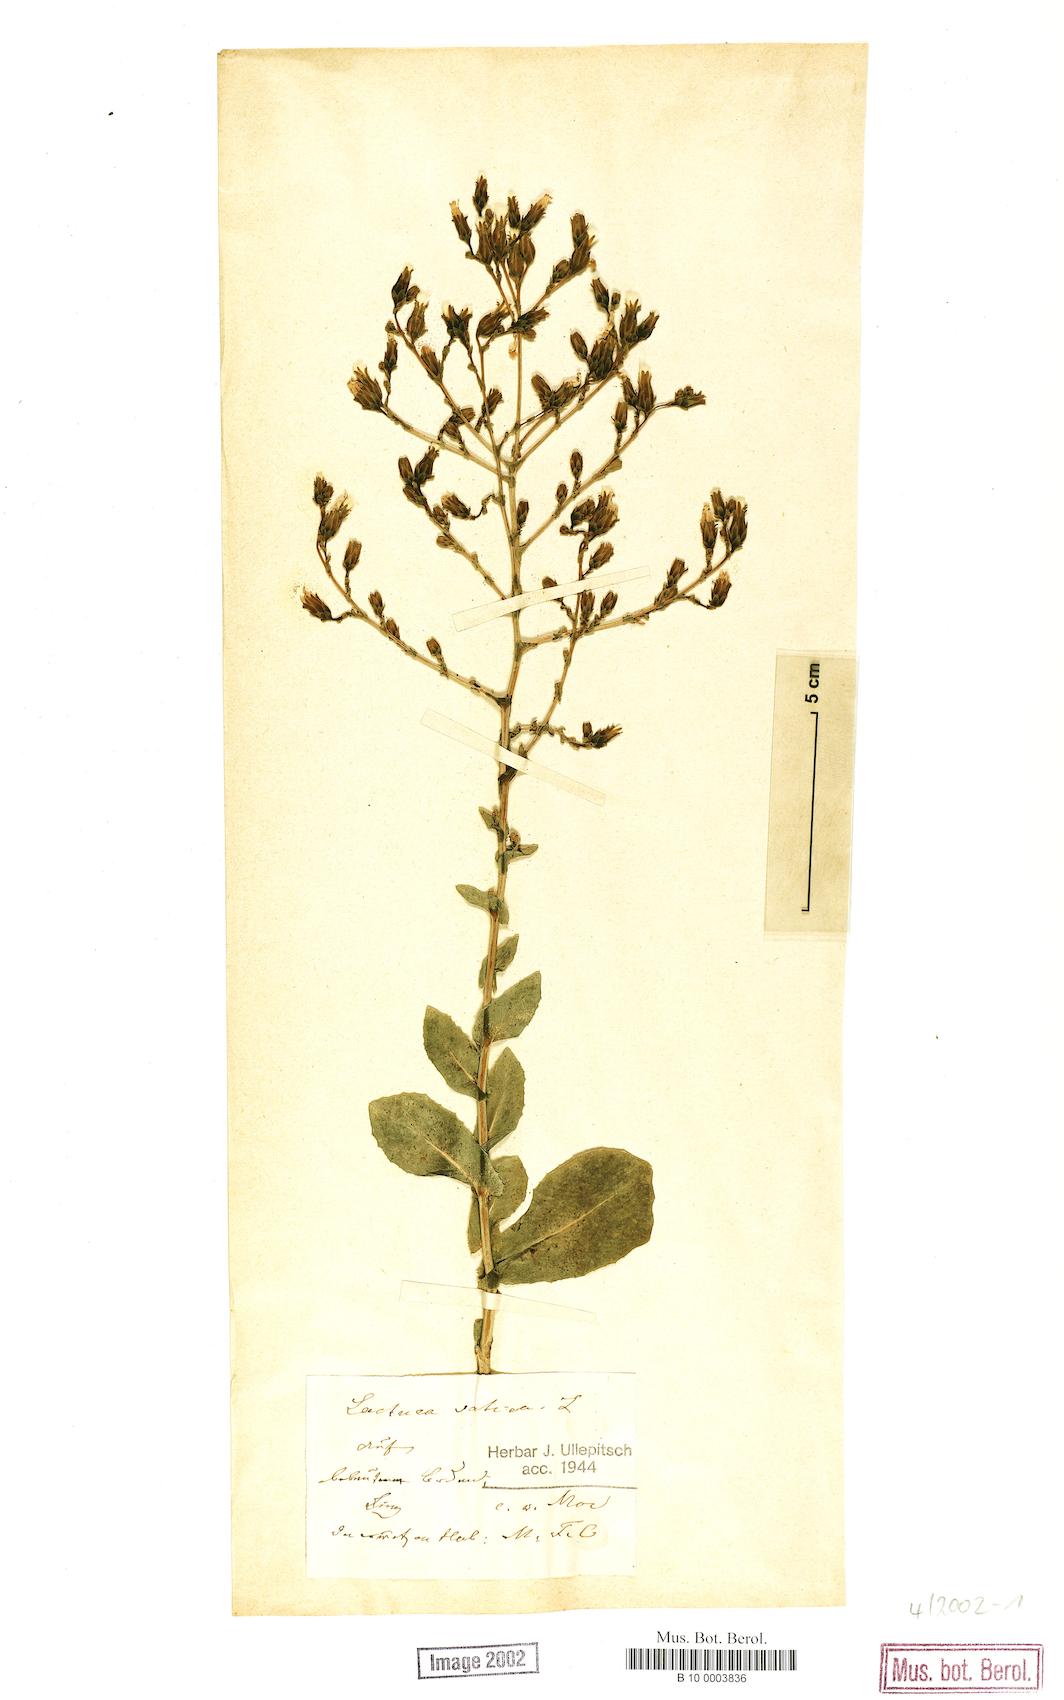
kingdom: Plantae
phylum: Tracheophyta
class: Magnoliopsida
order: Asterales
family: Asteraceae
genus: Lactuca
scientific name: Lactuca sativa
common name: Garden lettuce
